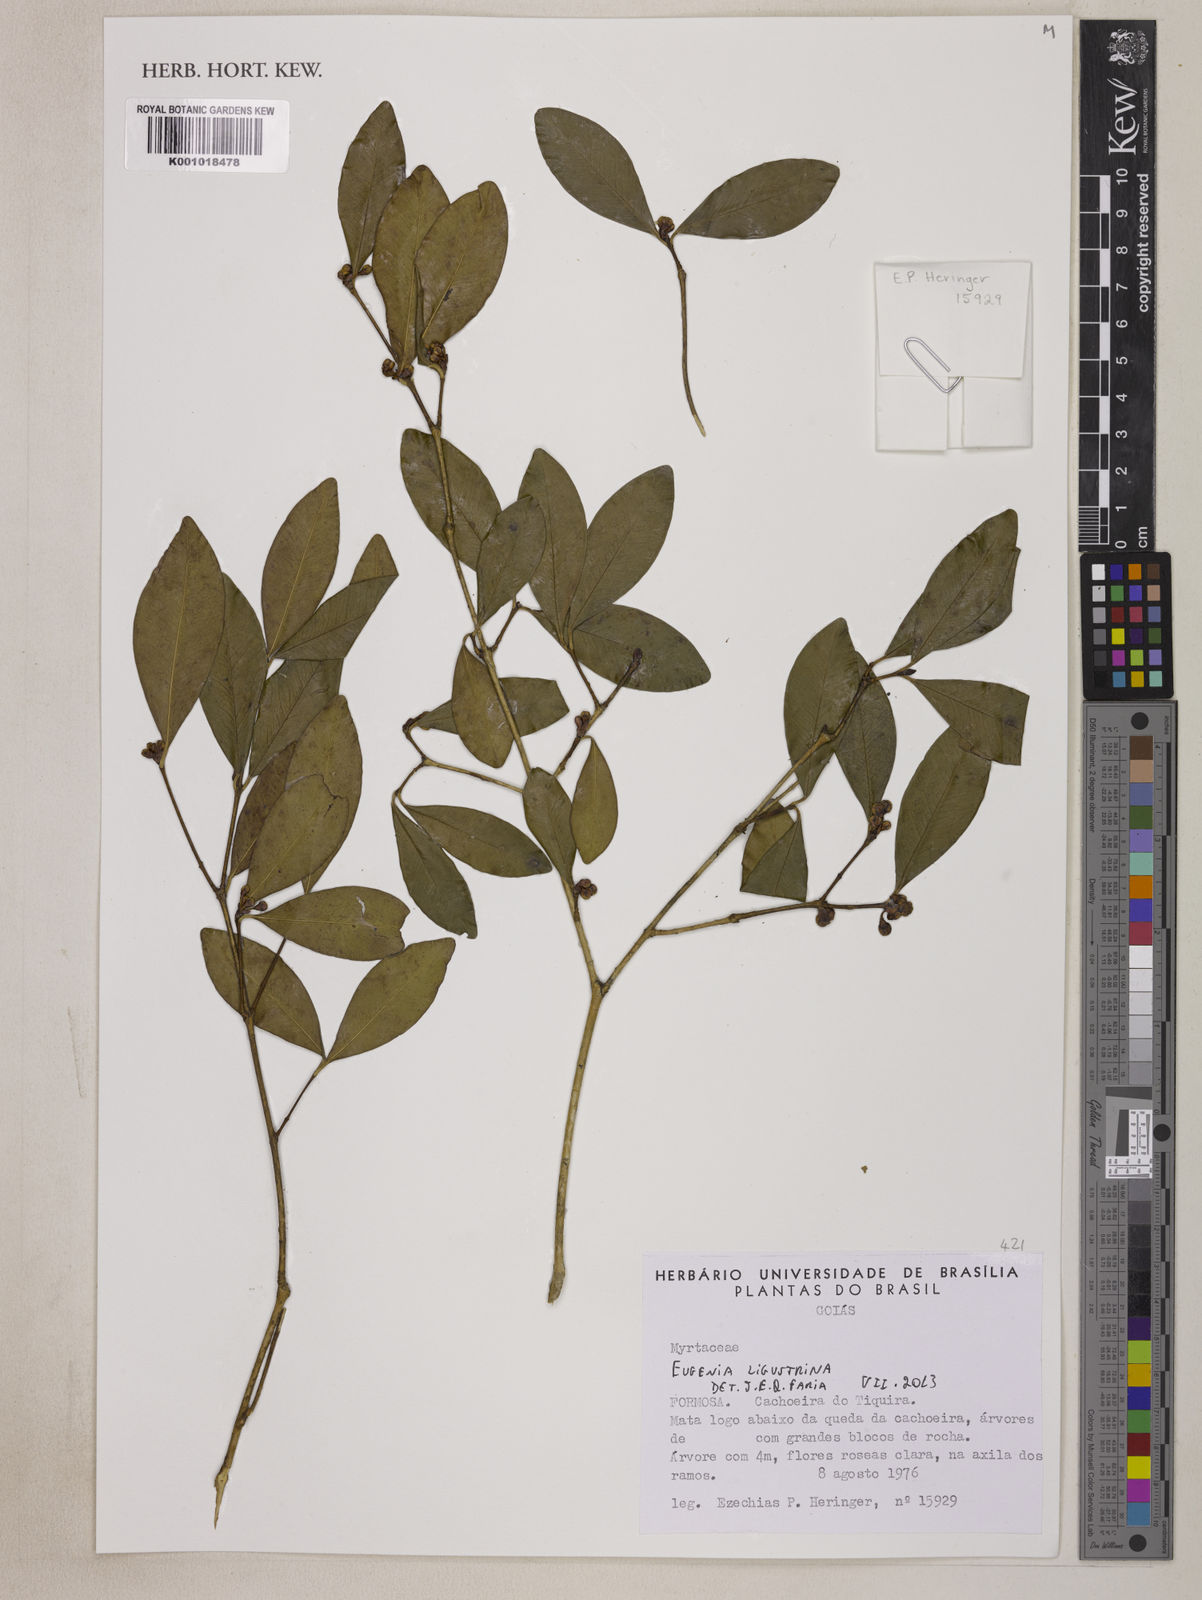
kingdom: Plantae
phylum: Tracheophyta
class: Magnoliopsida
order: Myrtales
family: Myrtaceae
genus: Eugenia
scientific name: Eugenia ligustrina
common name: Privet stopper
